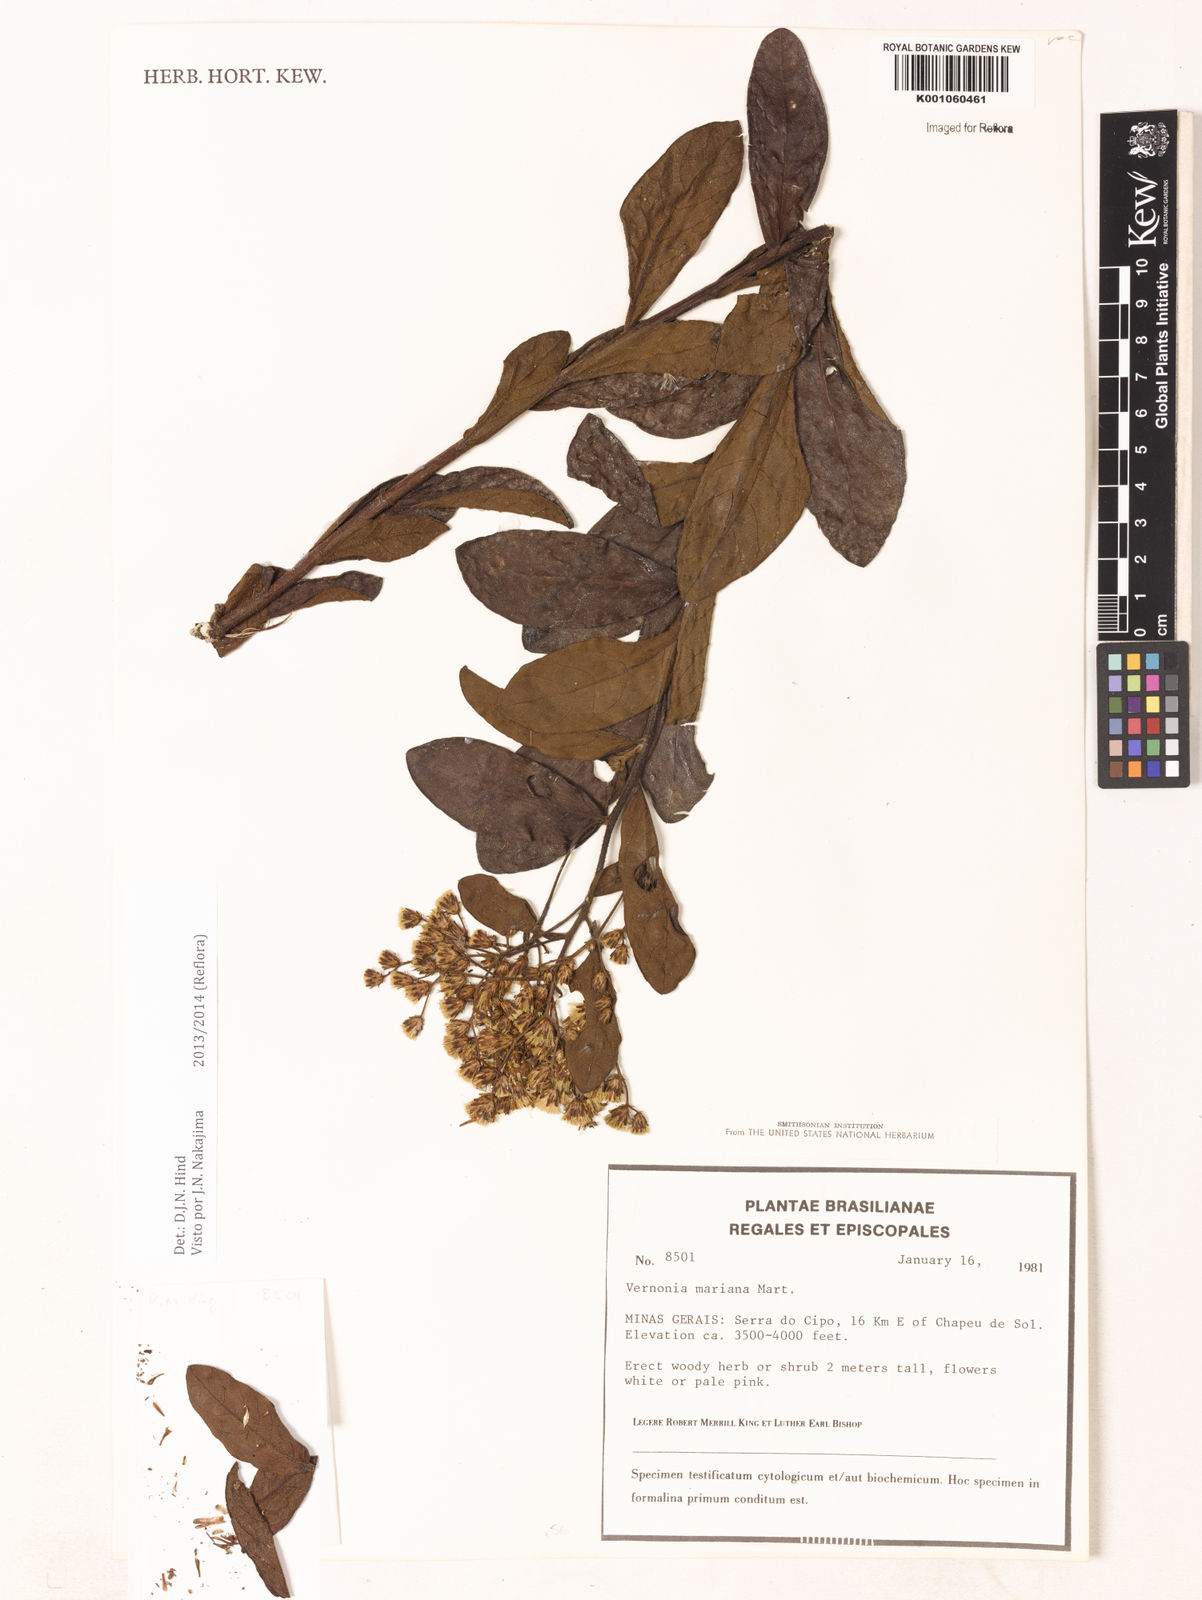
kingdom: Plantae
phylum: Tracheophyta
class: Magnoliopsida
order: Asterales
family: Asteraceae
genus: Vernonanthura
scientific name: Vernonanthura cymosa
